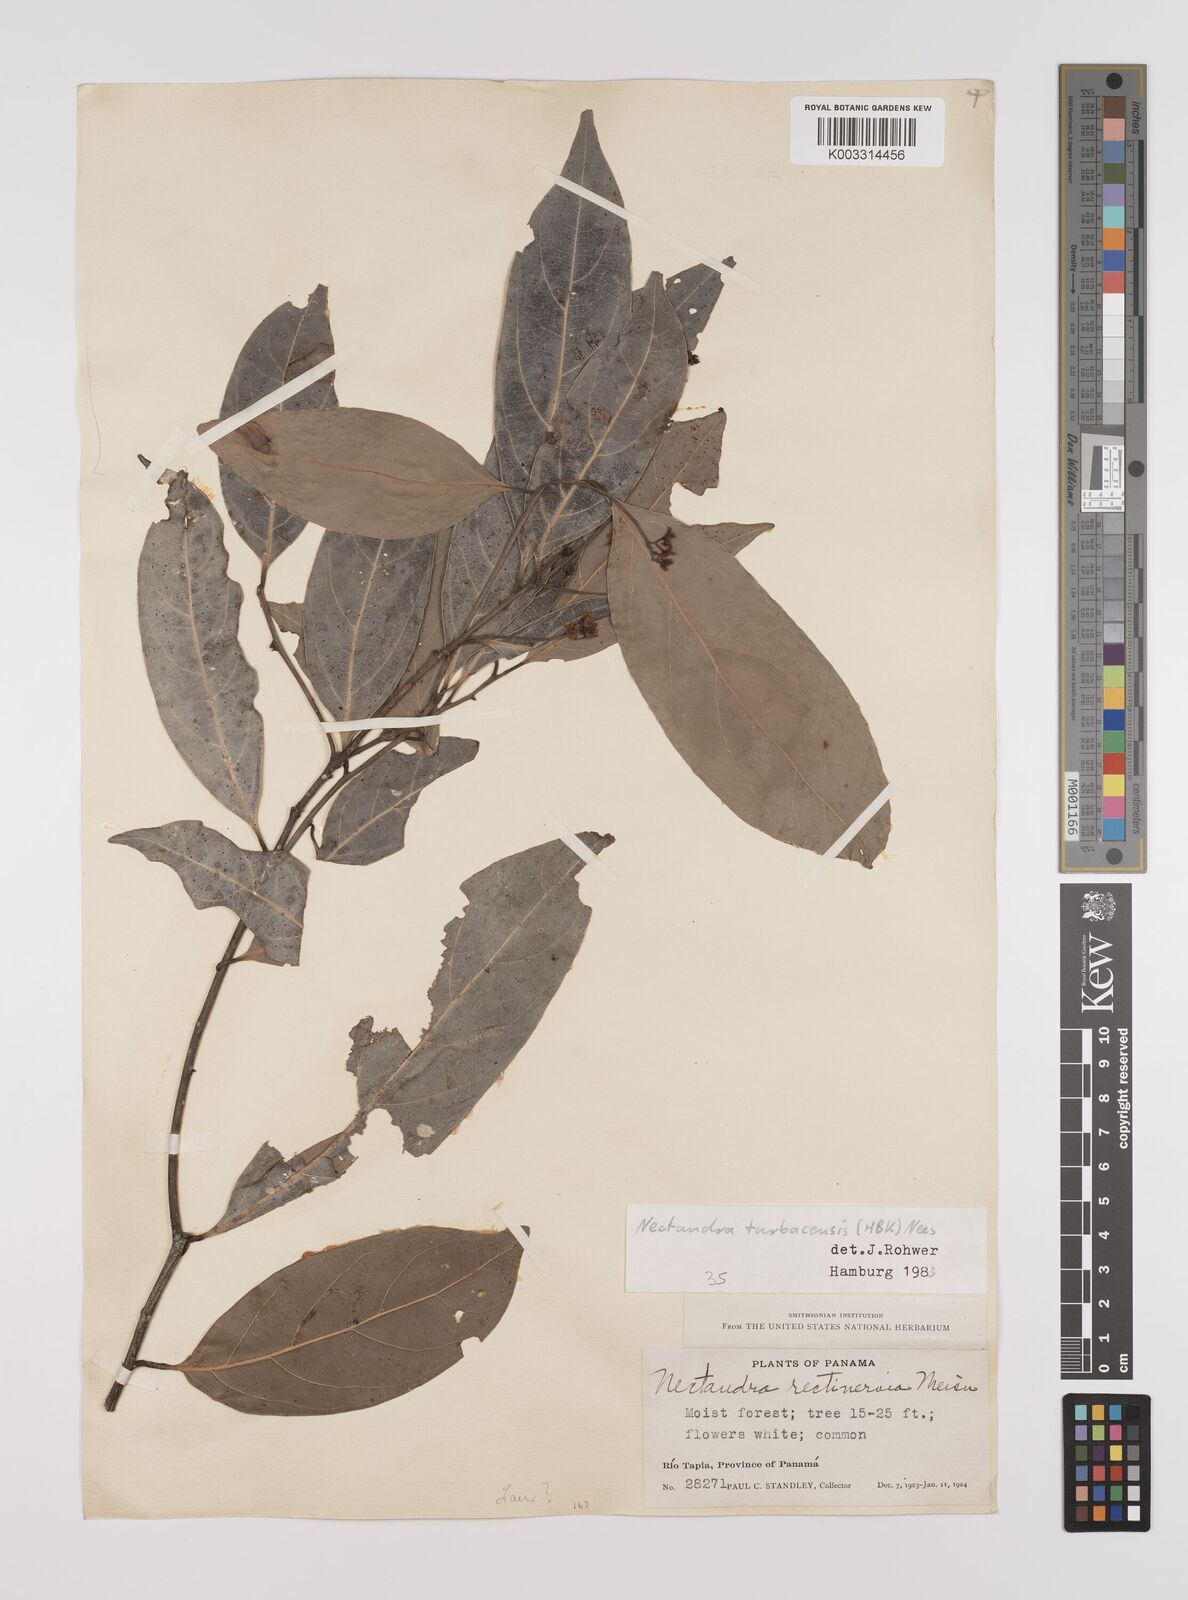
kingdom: Plantae
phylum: Tracheophyta
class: Magnoliopsida
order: Laurales
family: Lauraceae
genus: Nectandra
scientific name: Nectandra turbacensis
